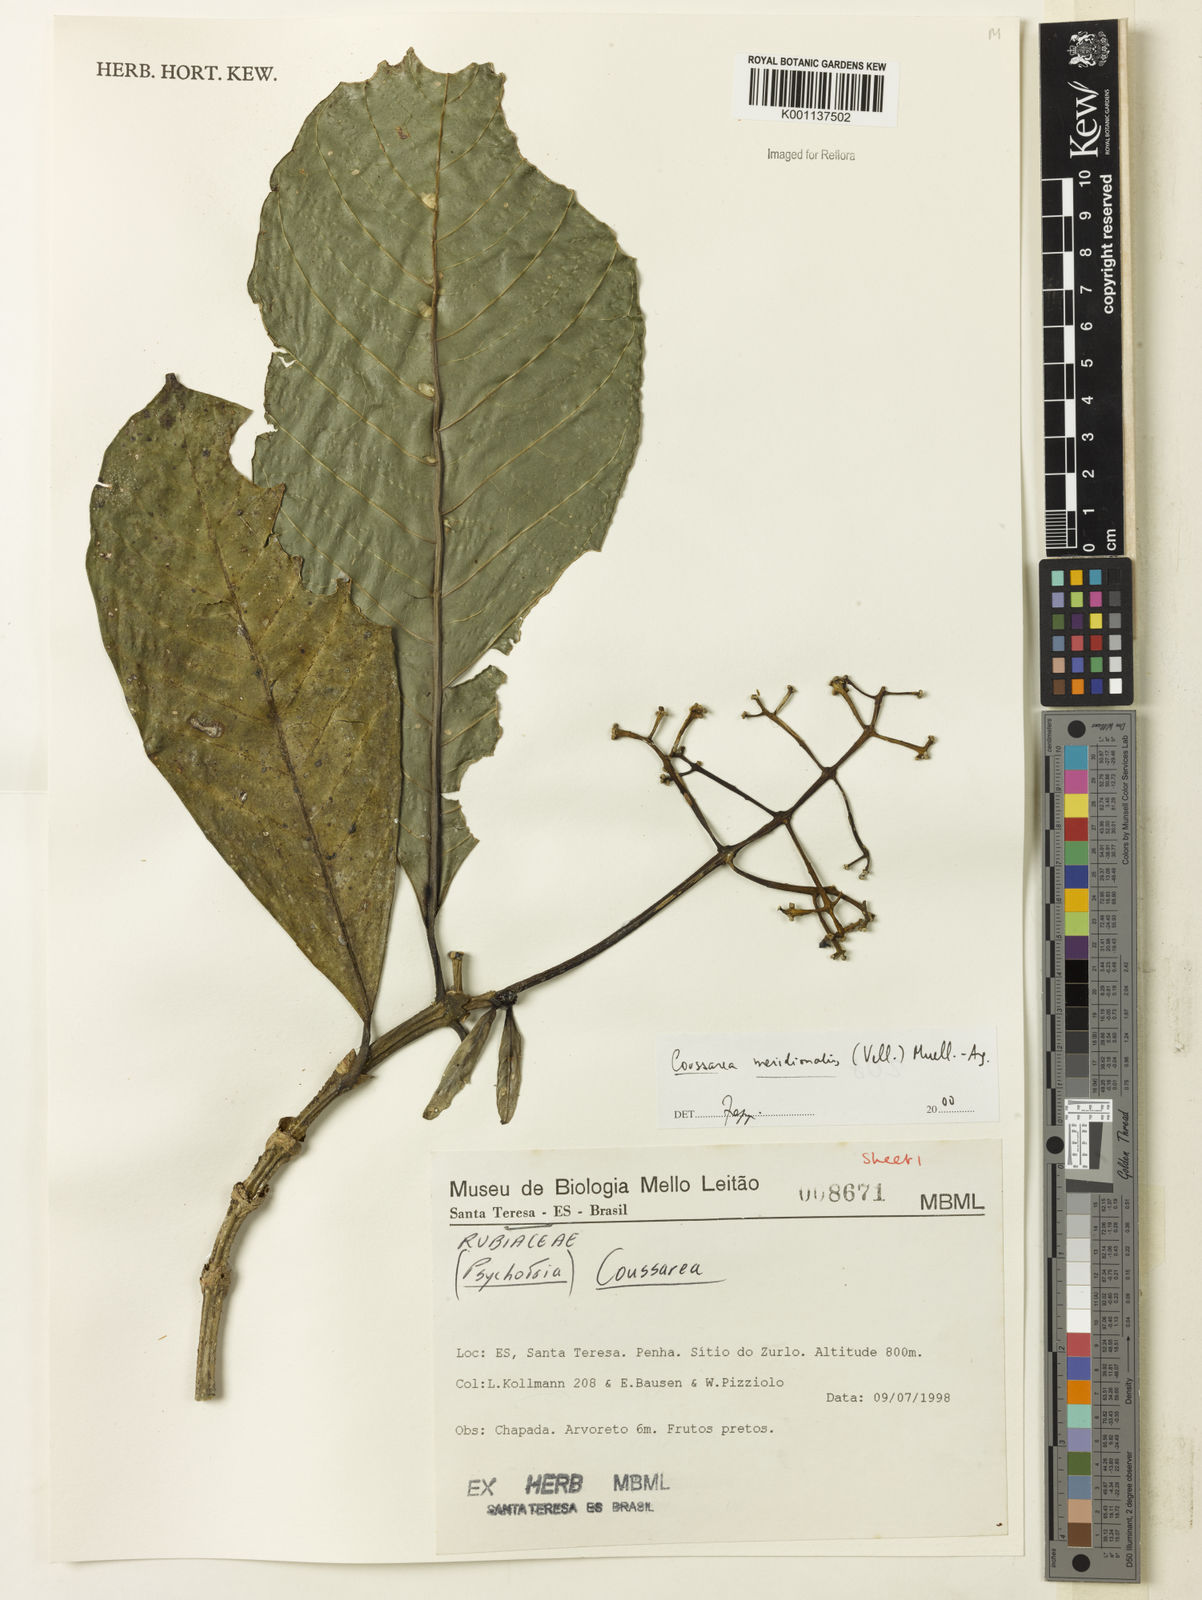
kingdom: Plantae
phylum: Tracheophyta
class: Magnoliopsida
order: Gentianales
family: Rubiaceae
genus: Coussarea
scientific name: Coussarea
